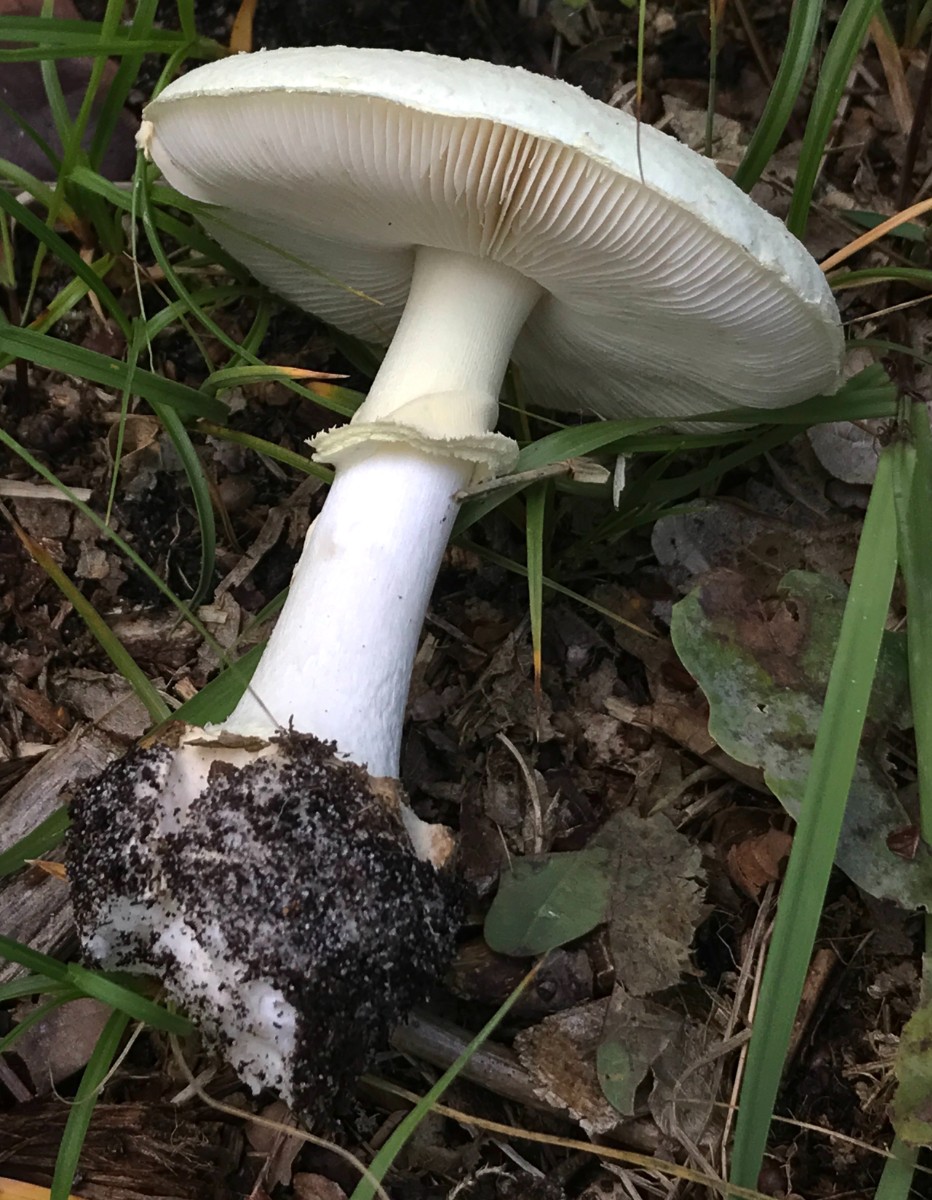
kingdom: Fungi
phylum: Basidiomycota
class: Agaricomycetes
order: Agaricales
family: Amanitaceae
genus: Amanita
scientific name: Amanita citrina
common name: kugleknoldet fluesvamp
